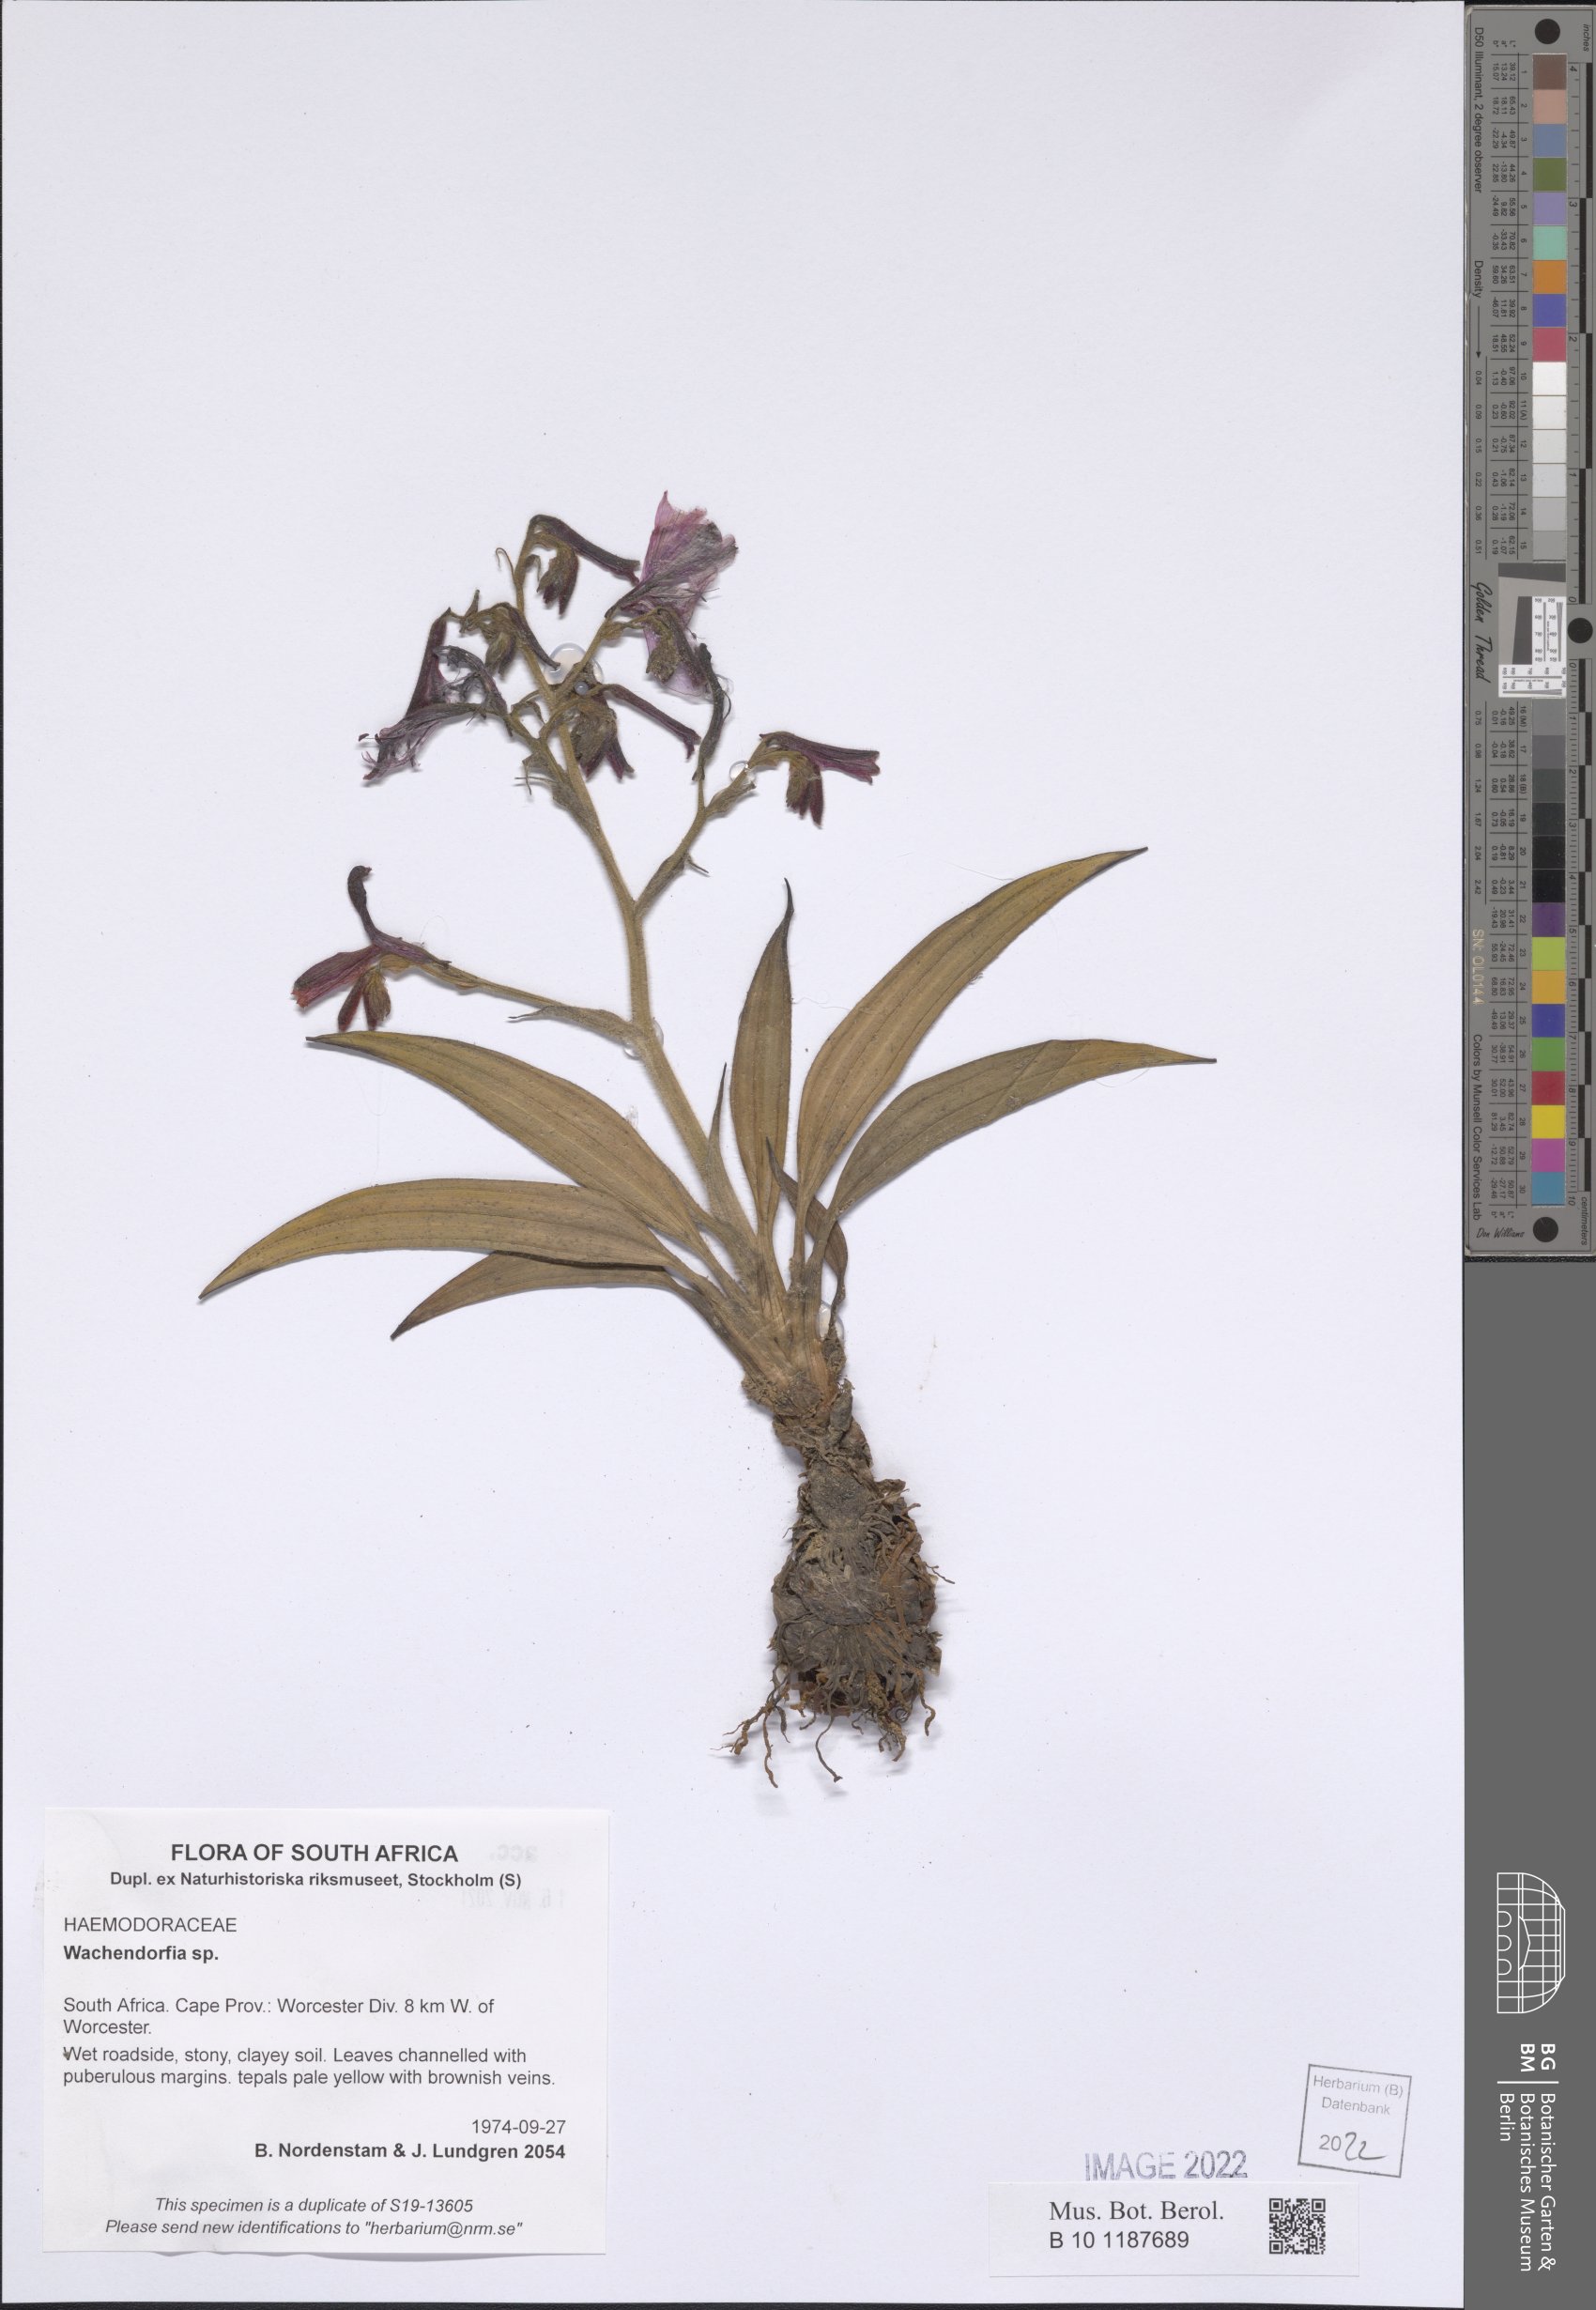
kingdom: Plantae
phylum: Tracheophyta
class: Liliopsida
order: Commelinales
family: Haemodoraceae
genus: Wachendorfia
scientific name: Wachendorfia
